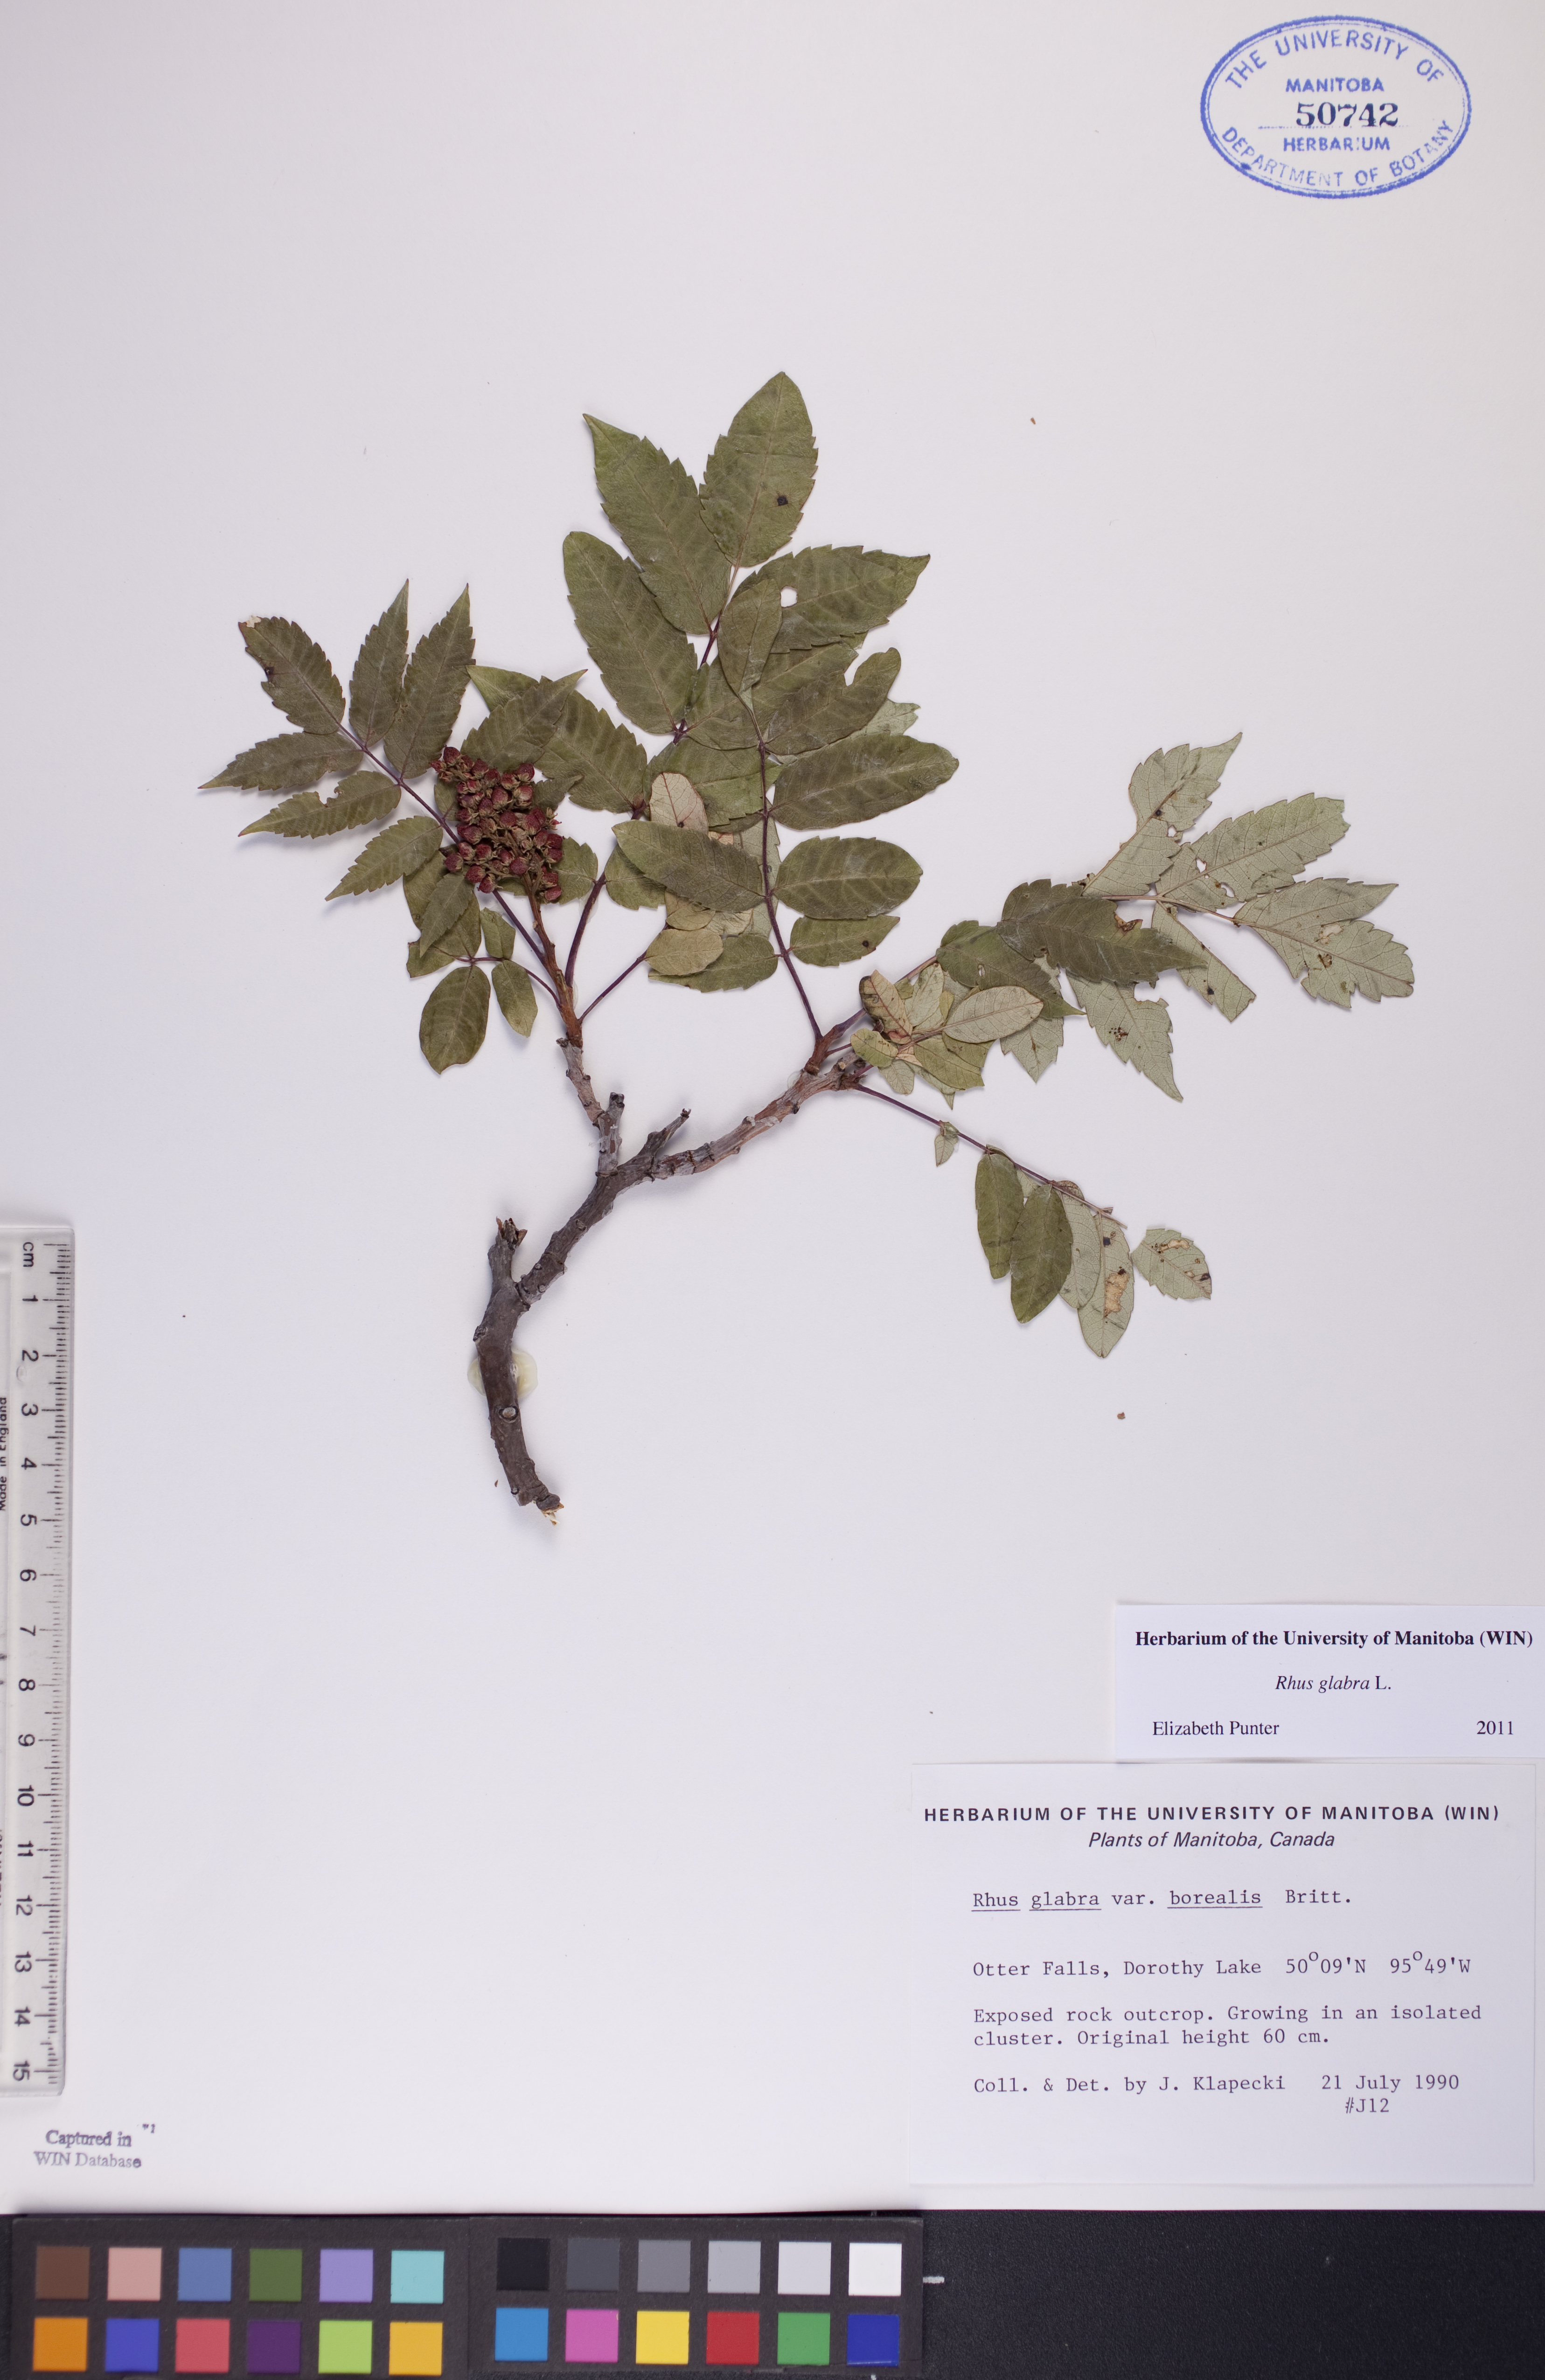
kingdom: Plantae
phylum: Tracheophyta
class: Magnoliopsida
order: Sapindales
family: Anacardiaceae
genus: Rhus
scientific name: Rhus glabra
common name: Scarlet sumac
